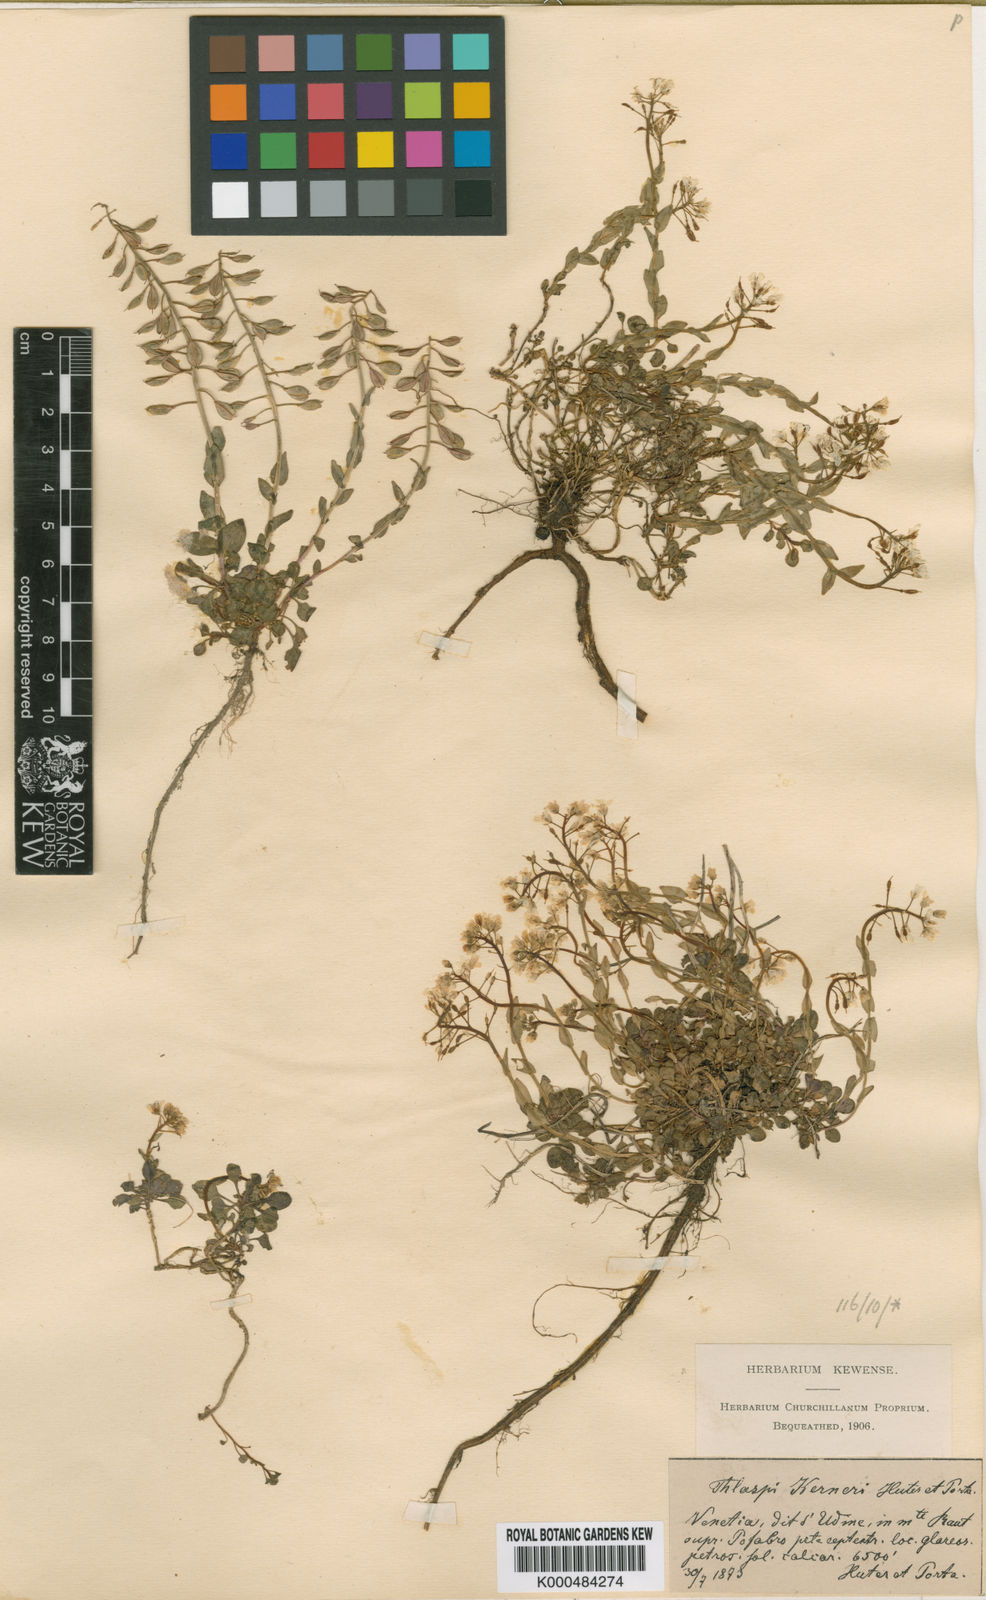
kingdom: Plantae
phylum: Tracheophyta
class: Magnoliopsida
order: Brassicales
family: Brassicaceae
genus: Noccaea
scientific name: Noccaea minima
